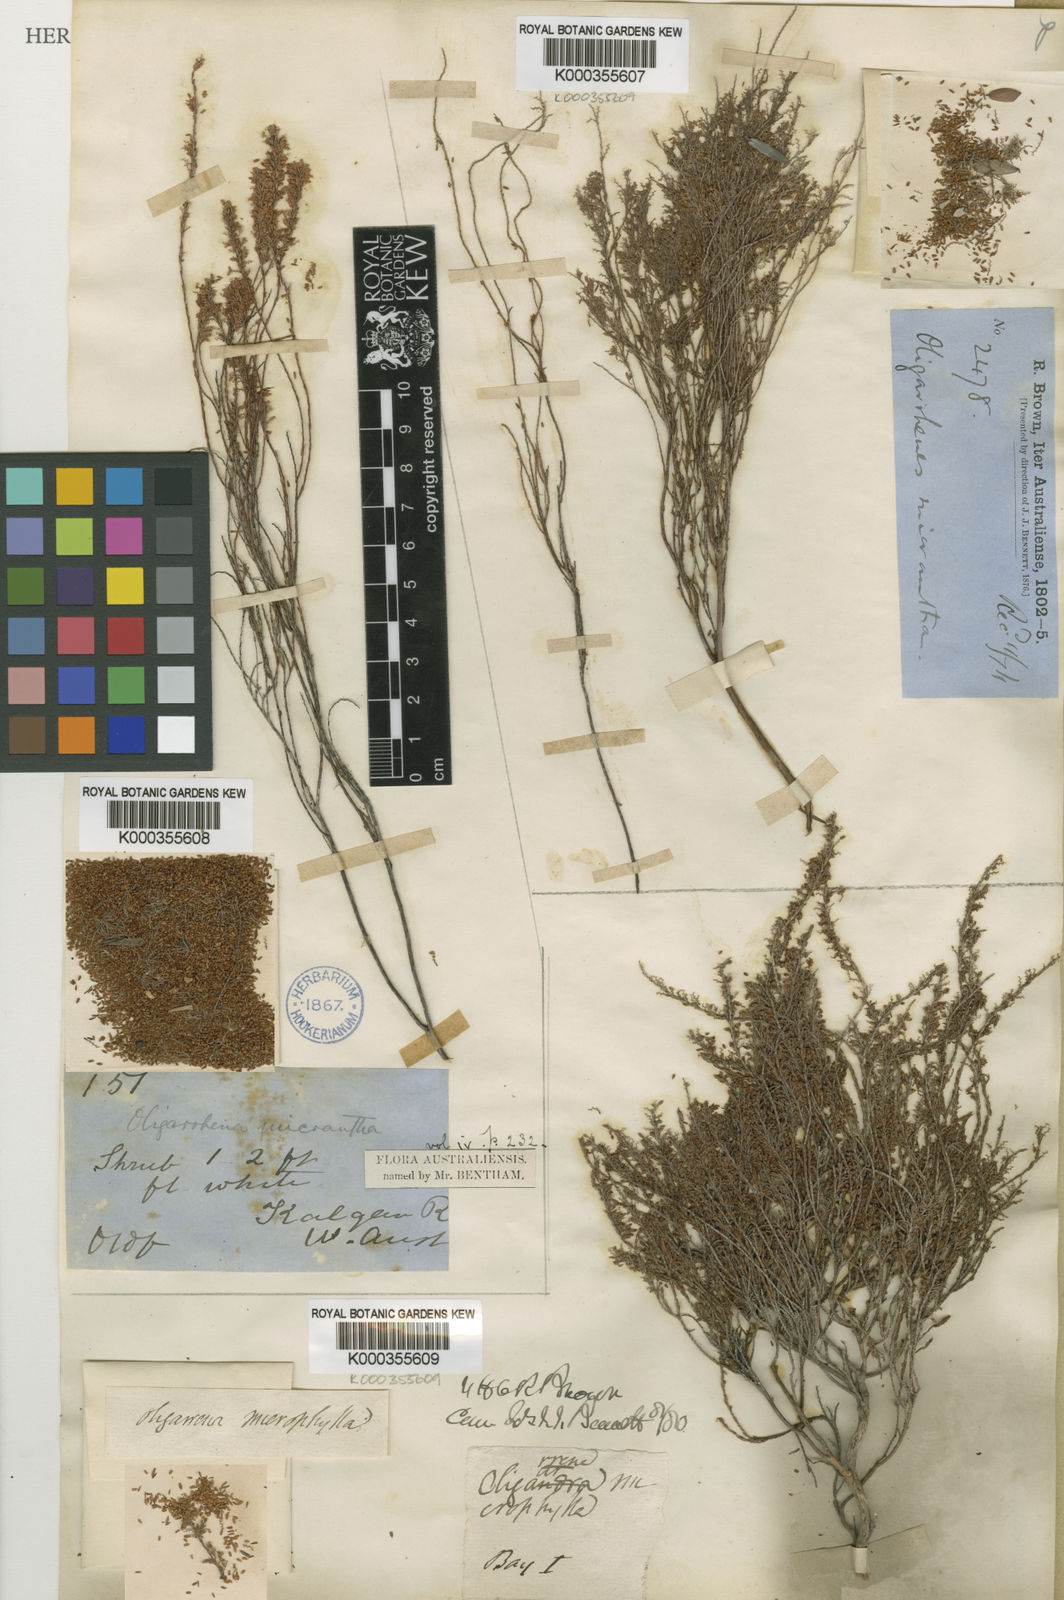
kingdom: Plantae
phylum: Tracheophyta
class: Magnoliopsida
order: Ericales
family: Ericaceae
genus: Oligarrhena
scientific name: Oligarrhena micrantha
